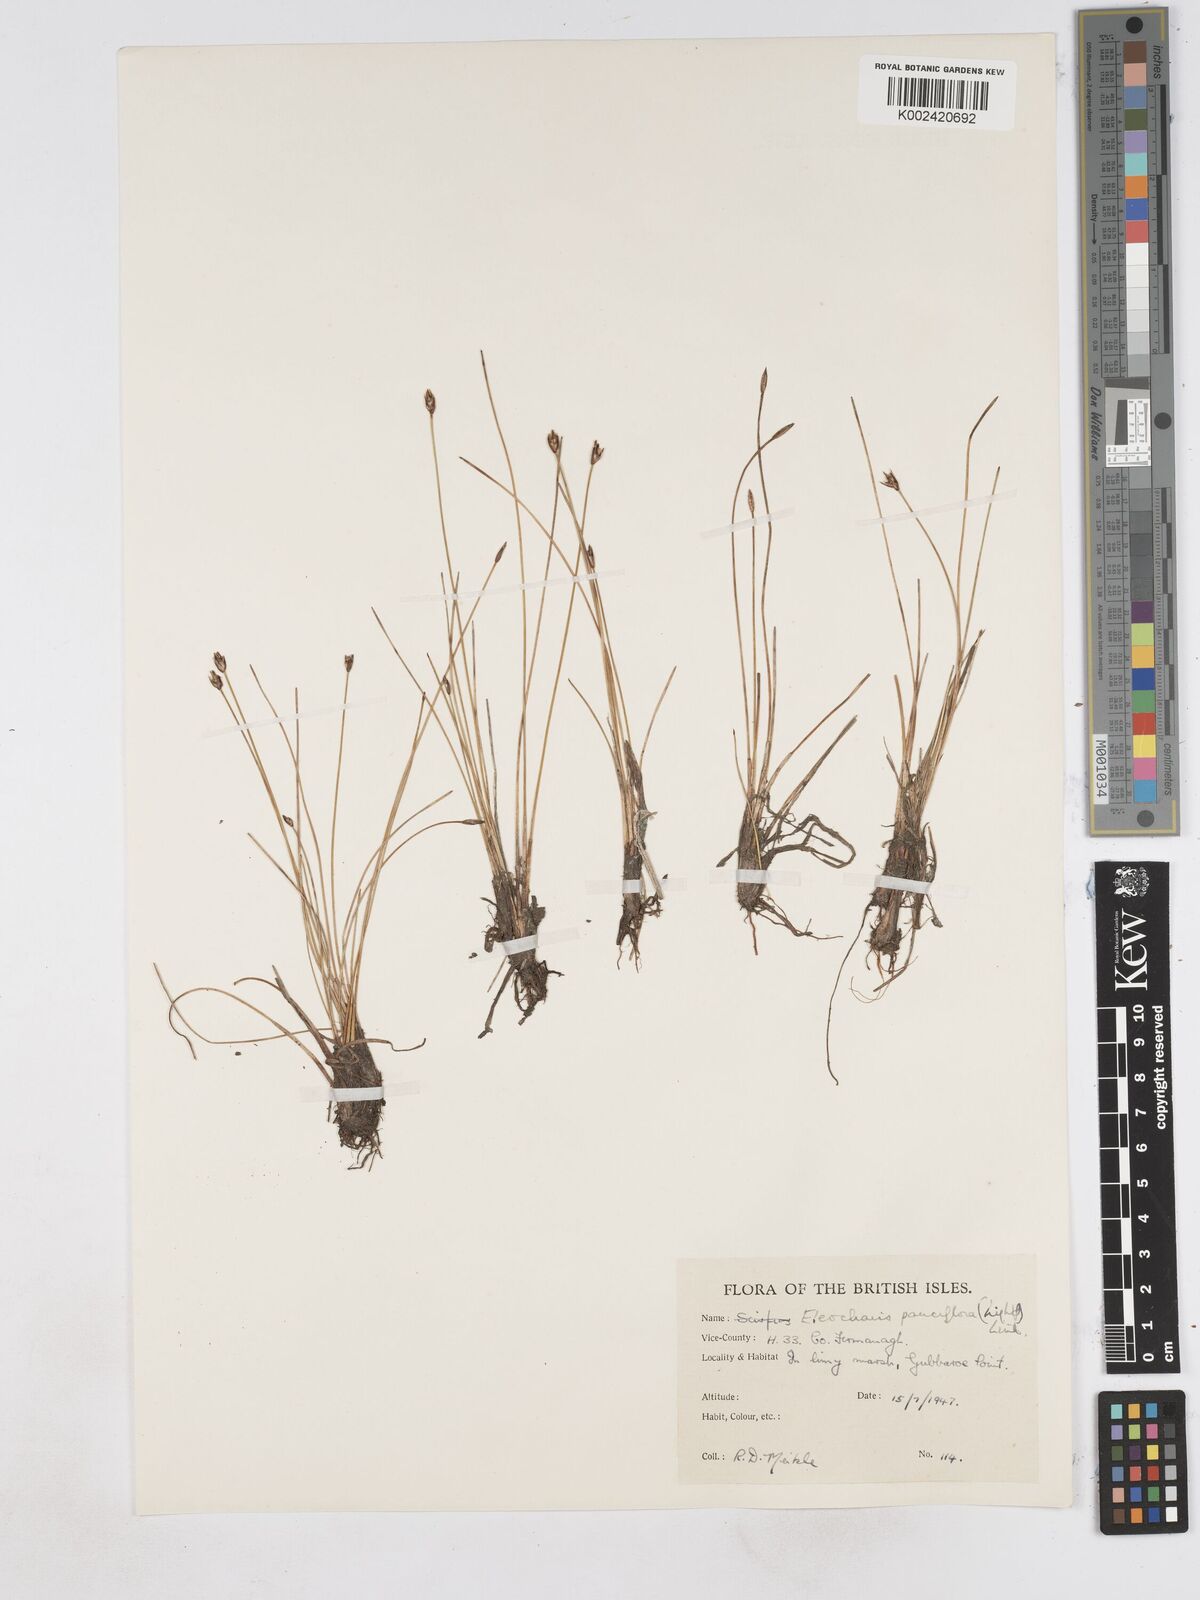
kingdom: Plantae
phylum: Tracheophyta
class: Liliopsida
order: Poales
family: Cyperaceae
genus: Eleocharis
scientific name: Eleocharis quinqueflora
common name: Few-flowered spike-rush
